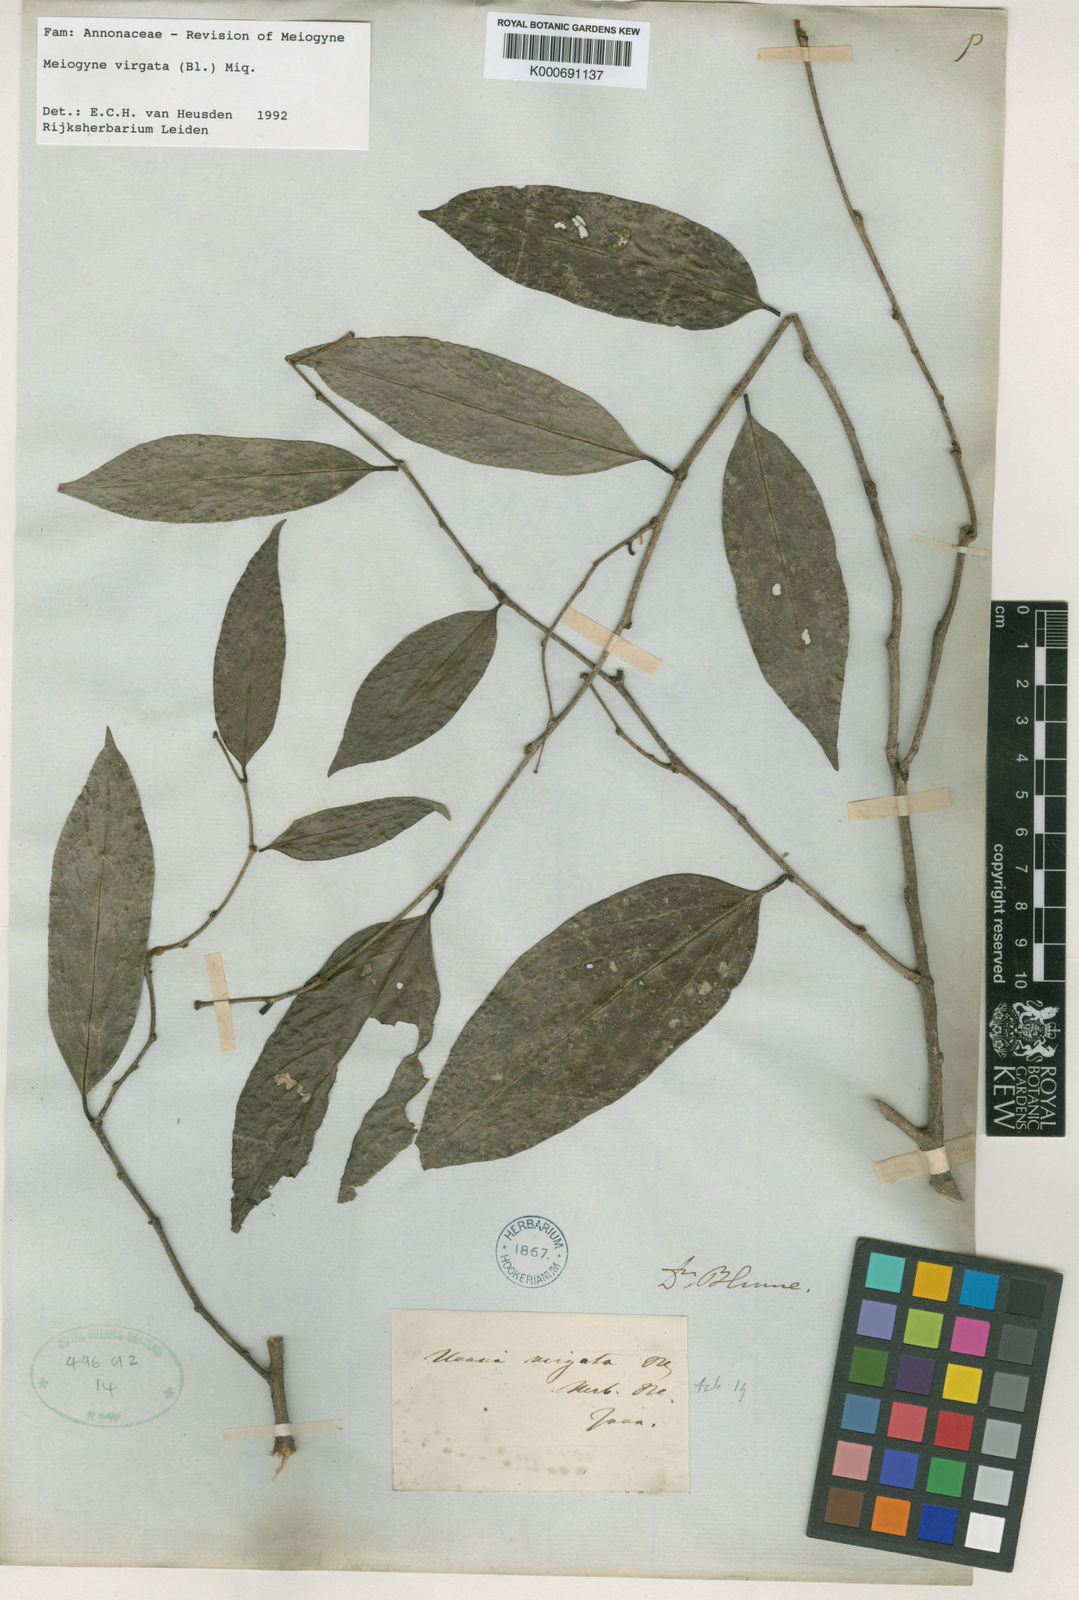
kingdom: Plantae
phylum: Tracheophyta
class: Magnoliopsida
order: Magnoliales
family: Annonaceae
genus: Meiogyne
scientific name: Meiogyne virgata
